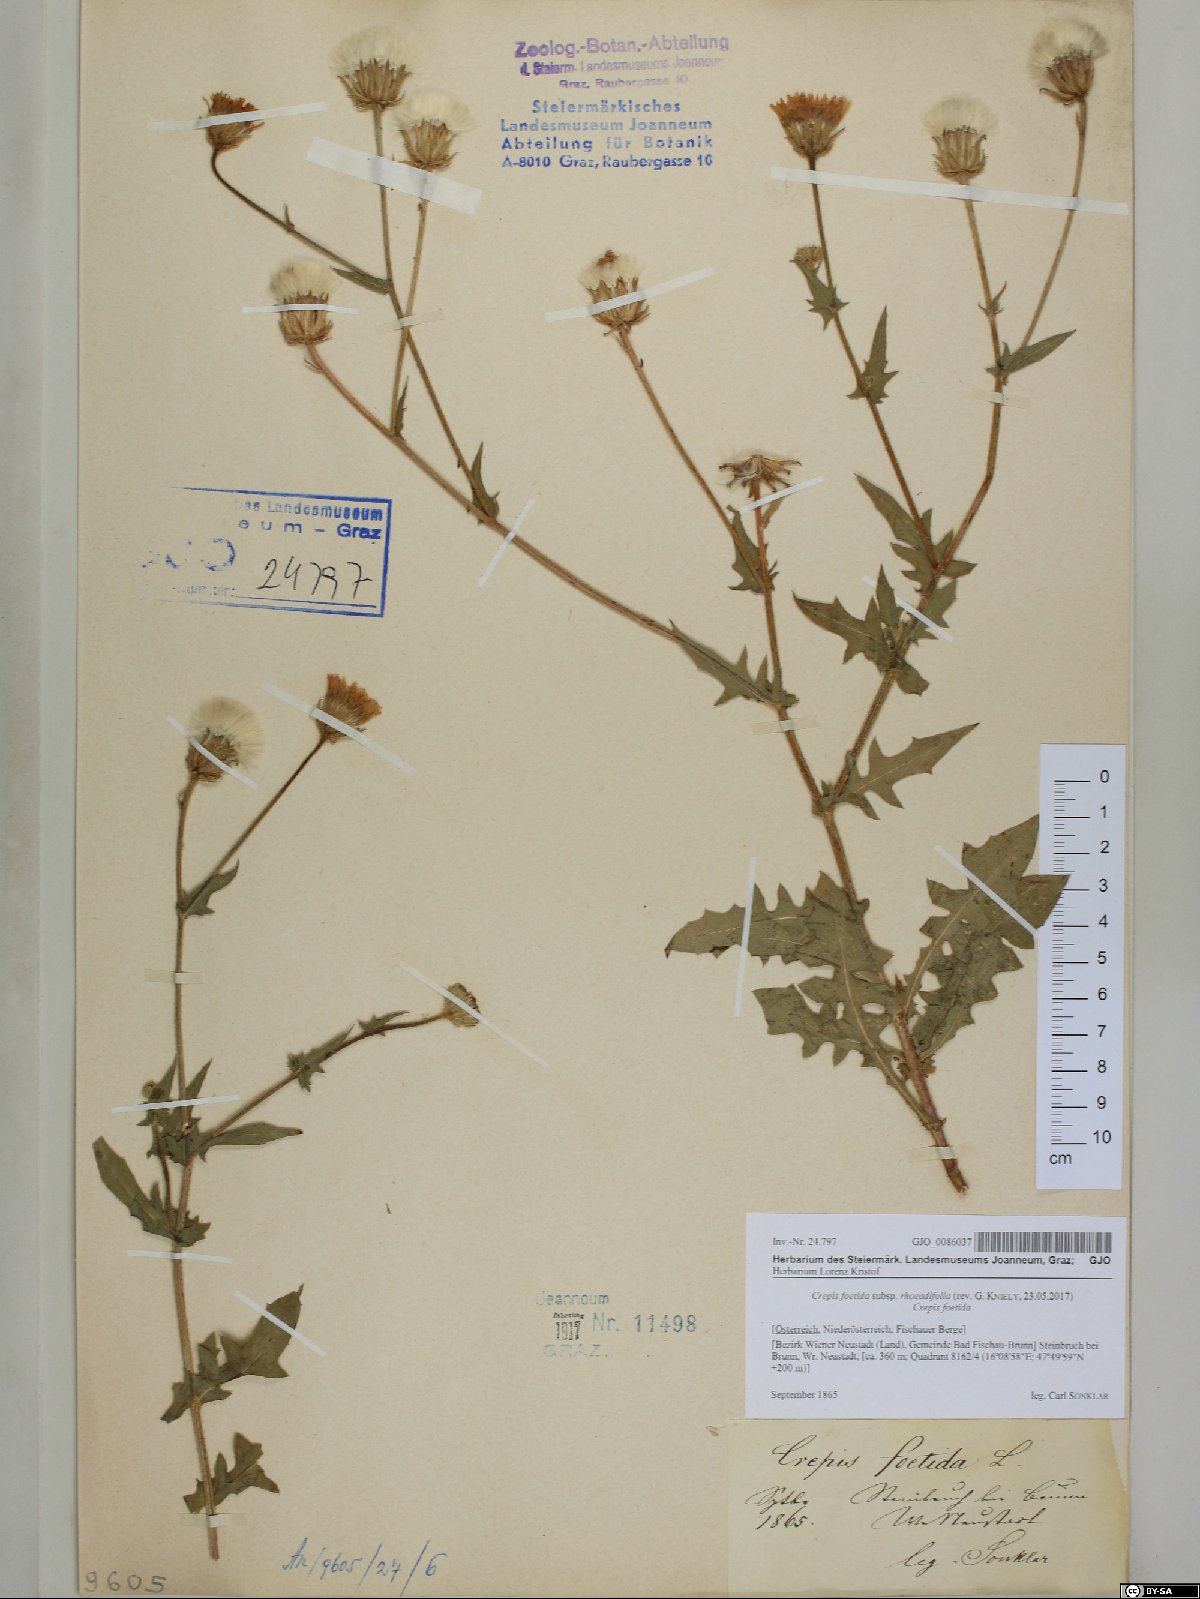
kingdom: Plantae
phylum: Tracheophyta
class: Magnoliopsida
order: Asterales
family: Asteraceae
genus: Crepis
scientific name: Crepis foetida
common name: Stinking hawk's-beard
